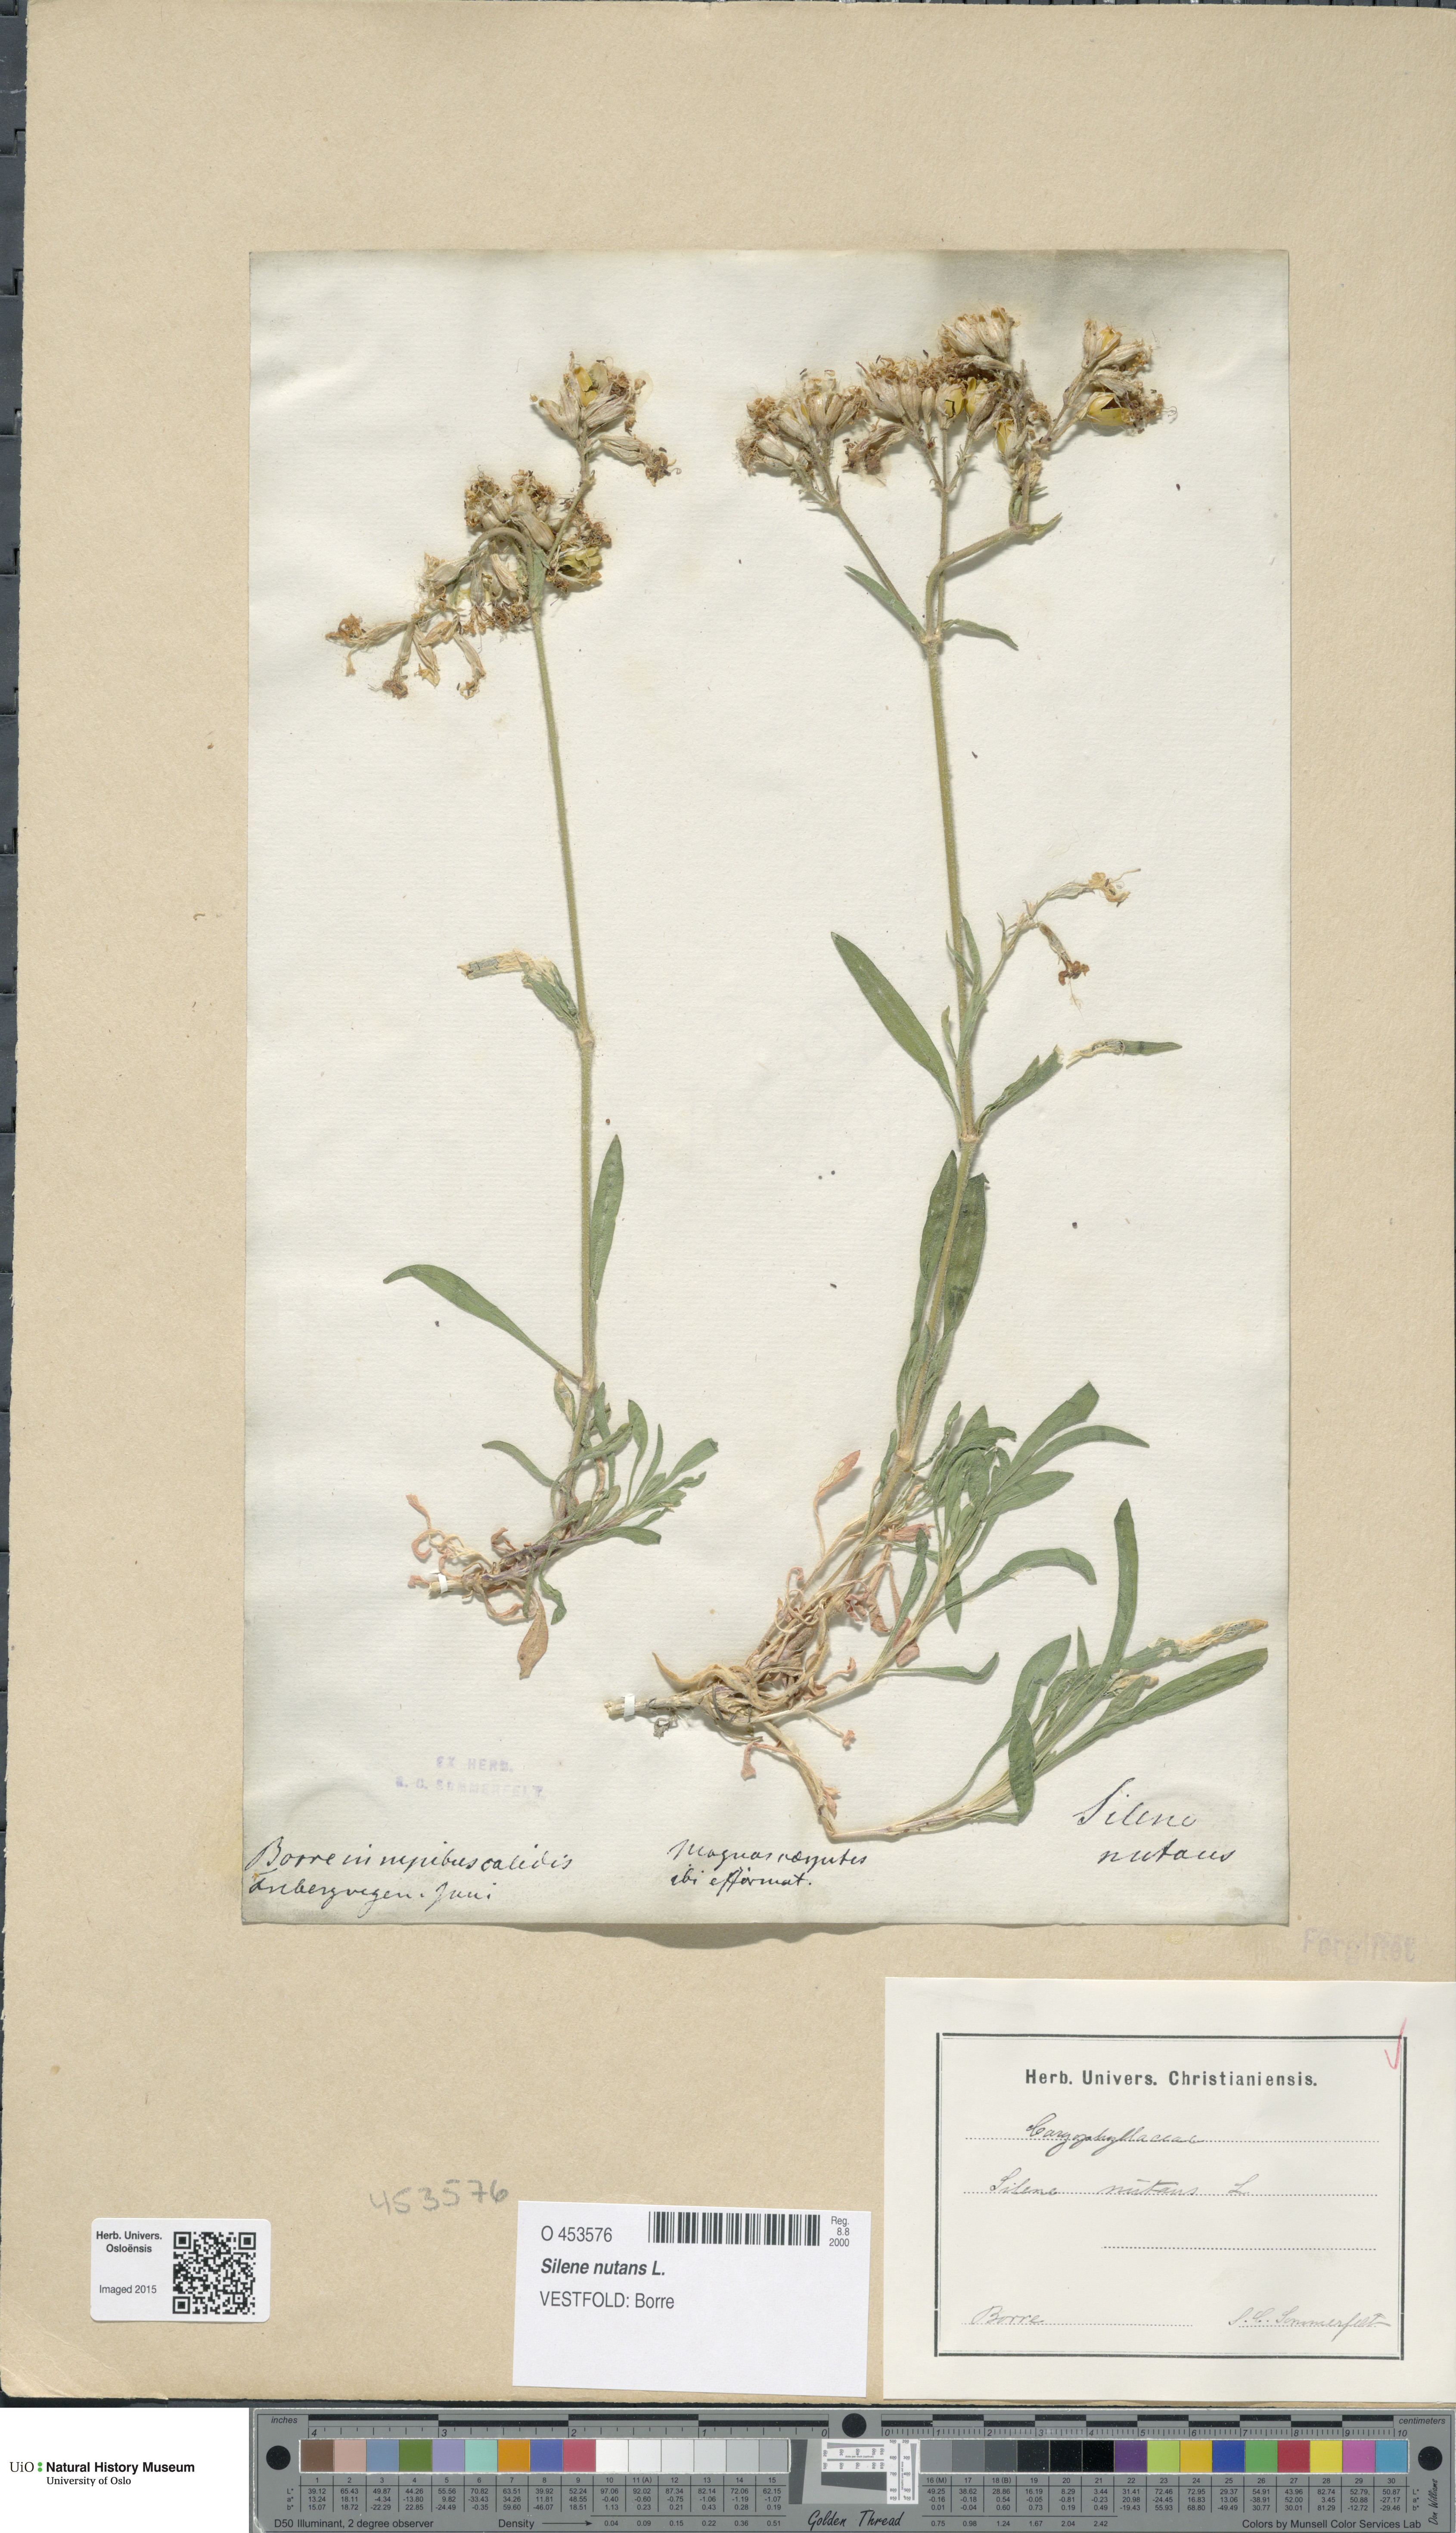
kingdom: Plantae
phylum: Tracheophyta
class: Magnoliopsida
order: Caryophyllales
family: Caryophyllaceae
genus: Silene
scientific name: Silene nutans
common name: Nottingham catchfly
